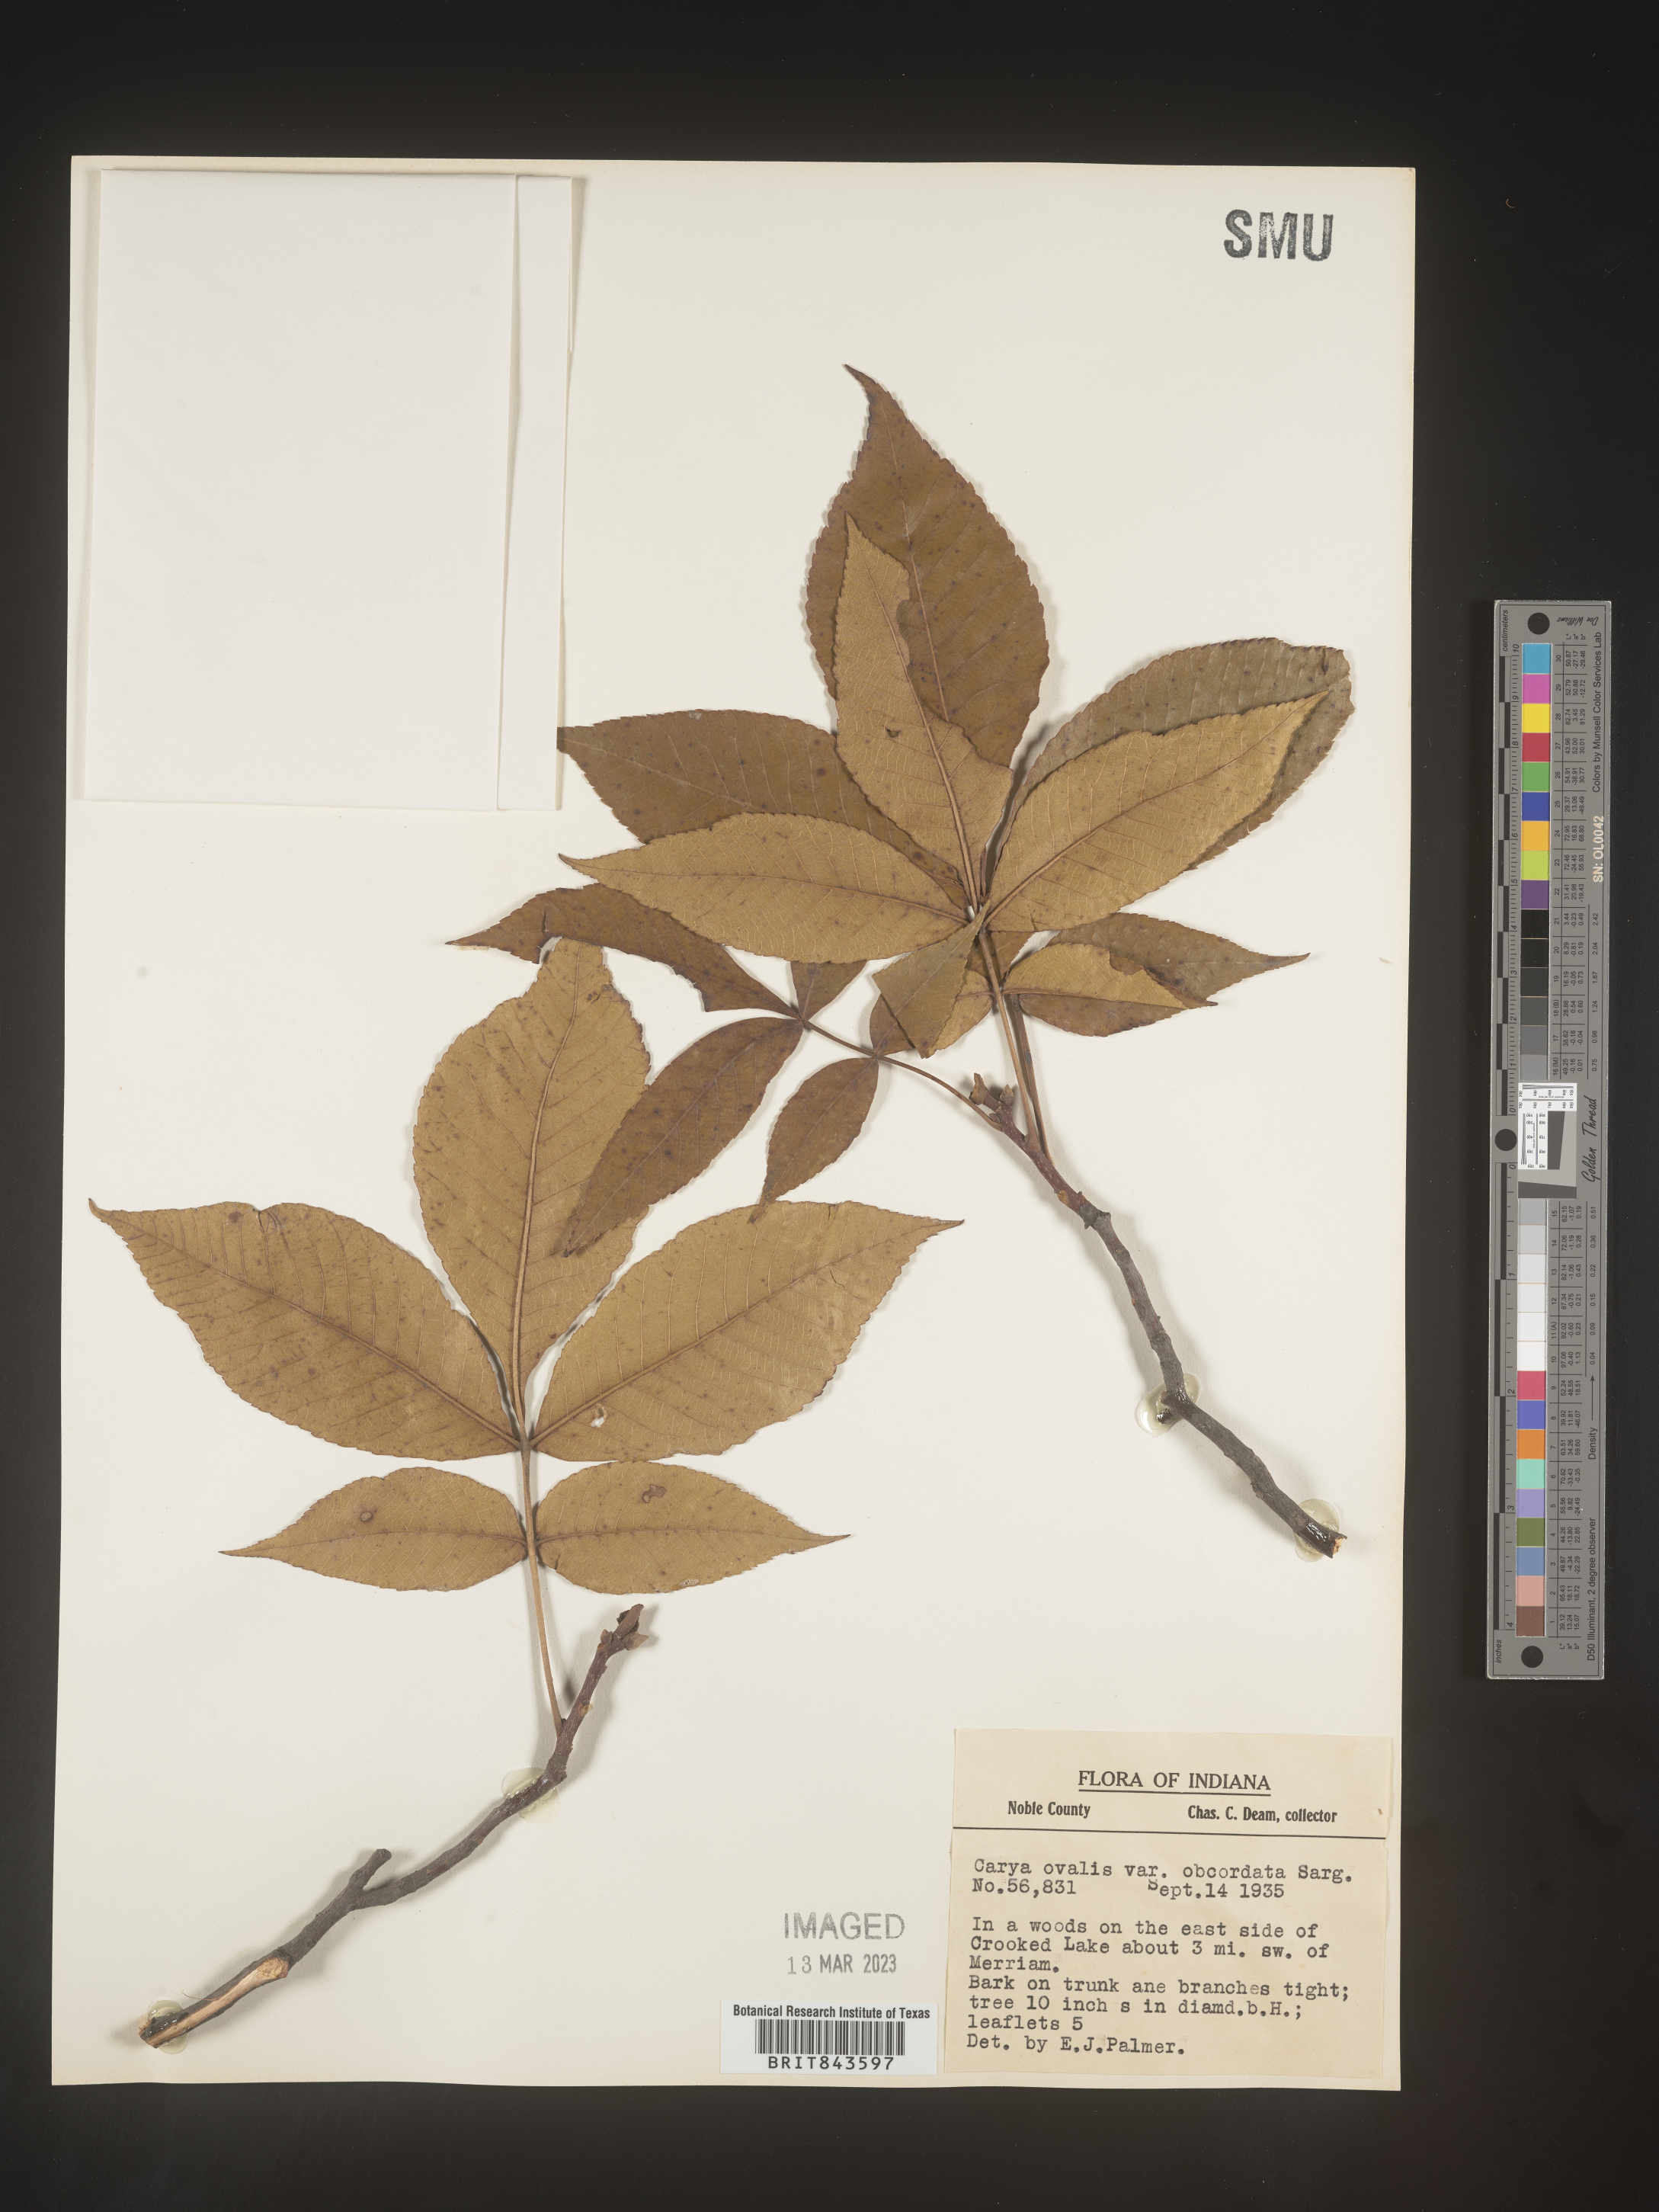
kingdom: Plantae
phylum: Tracheophyta
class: Magnoliopsida
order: Fagales
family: Juglandaceae
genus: Carya
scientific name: Carya ovalis
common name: False shagbark
